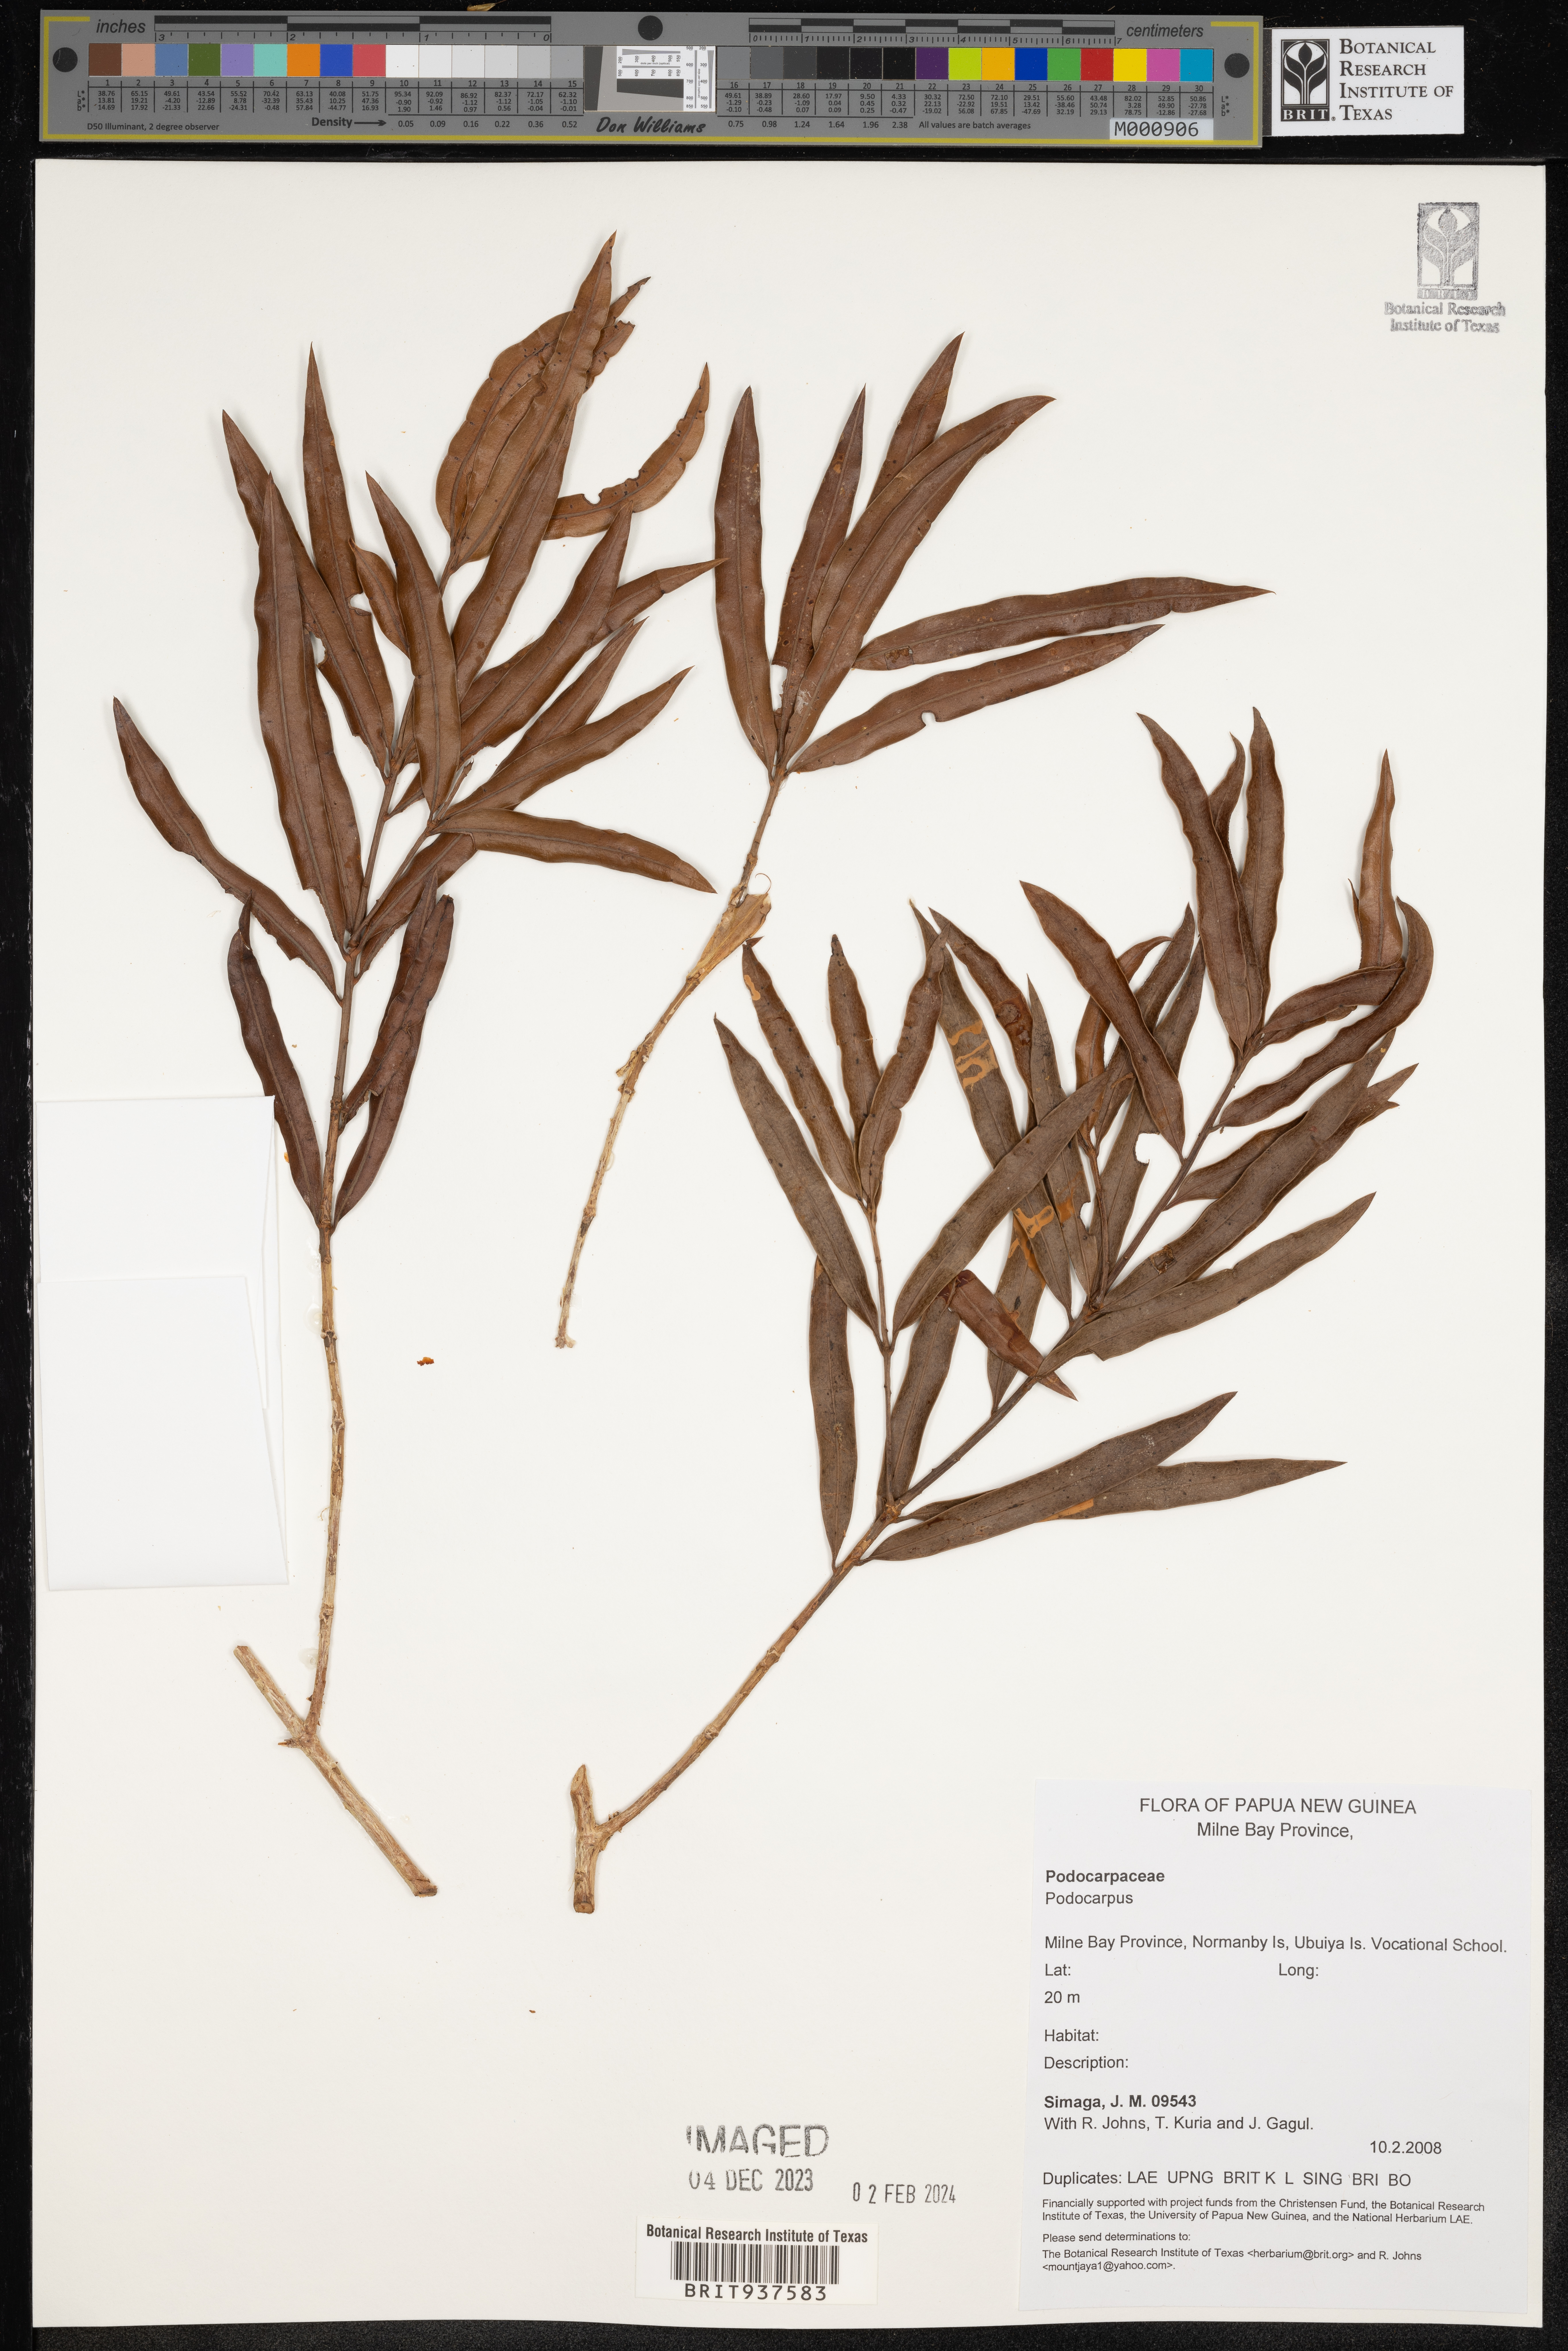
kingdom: Plantae
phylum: Tracheophyta
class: Pinopsida
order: Pinales
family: Podocarpaceae
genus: Podocarpus
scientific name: Podocarpus
